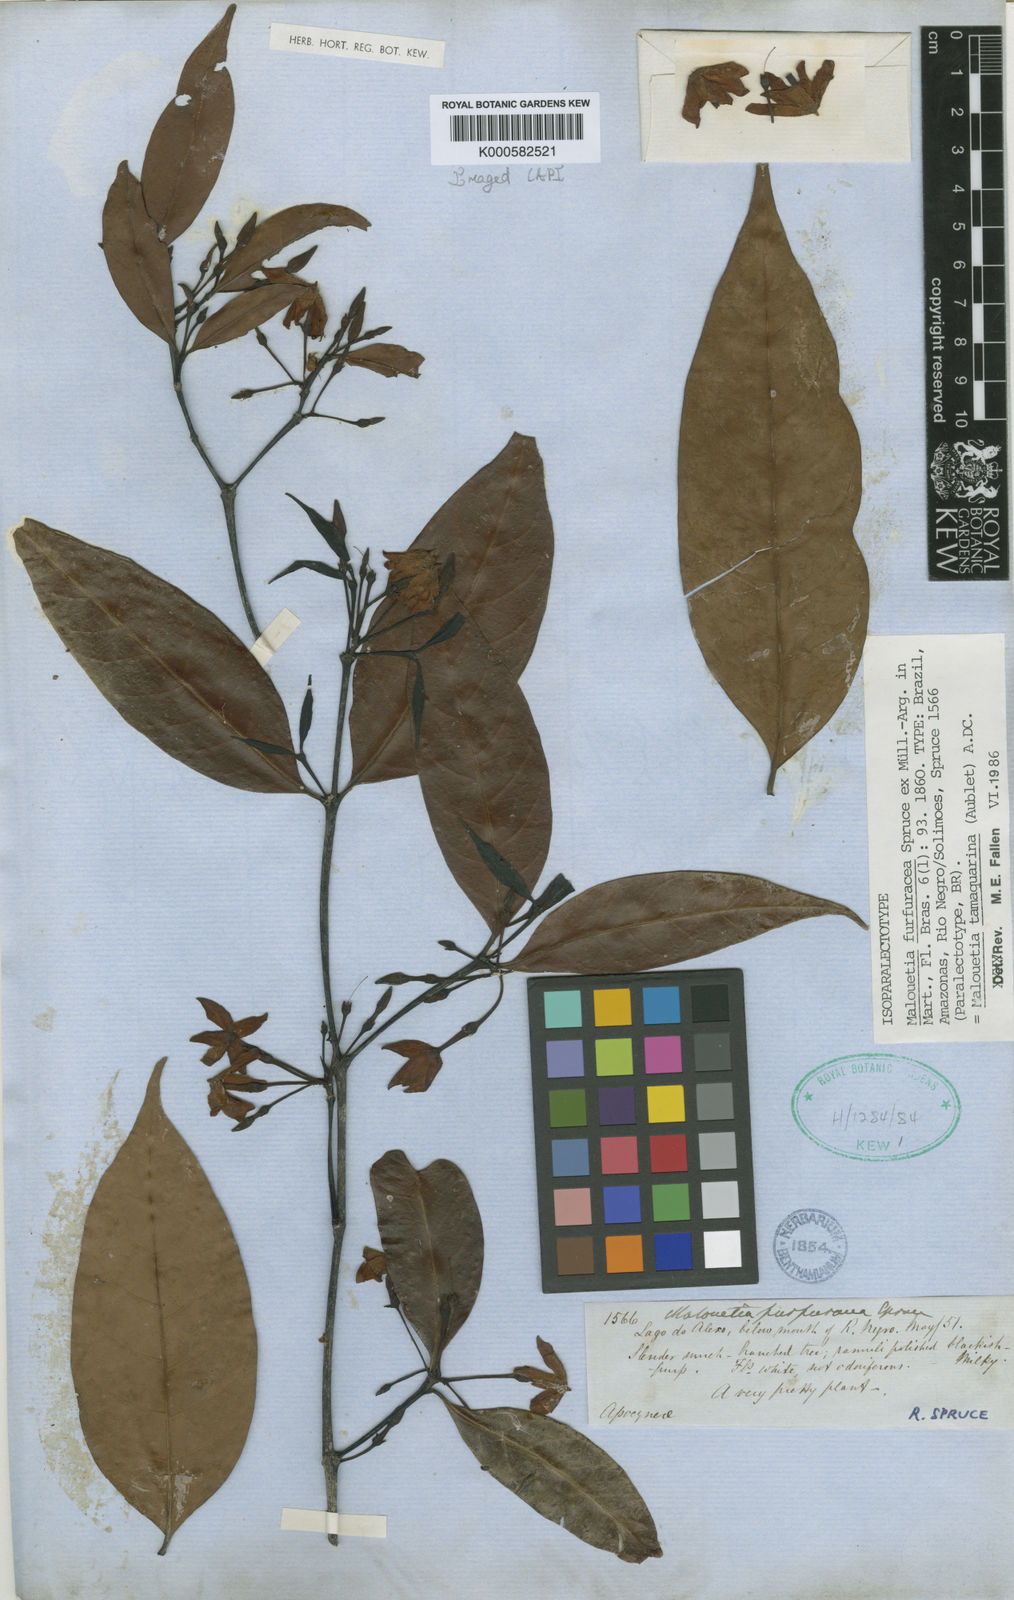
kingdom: Plantae
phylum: Tracheophyta
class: Magnoliopsida
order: Gentianales
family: Apocynaceae
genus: Malouetia
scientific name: Malouetia
